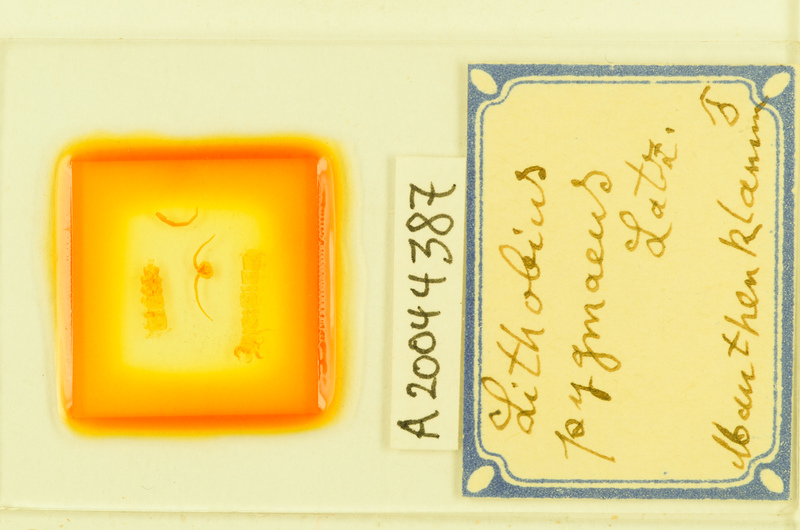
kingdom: Animalia
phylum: Arthropoda
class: Chilopoda
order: Lithobiomorpha
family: Lithobiidae
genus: Lithobius
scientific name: Lithobius pygmaeus
